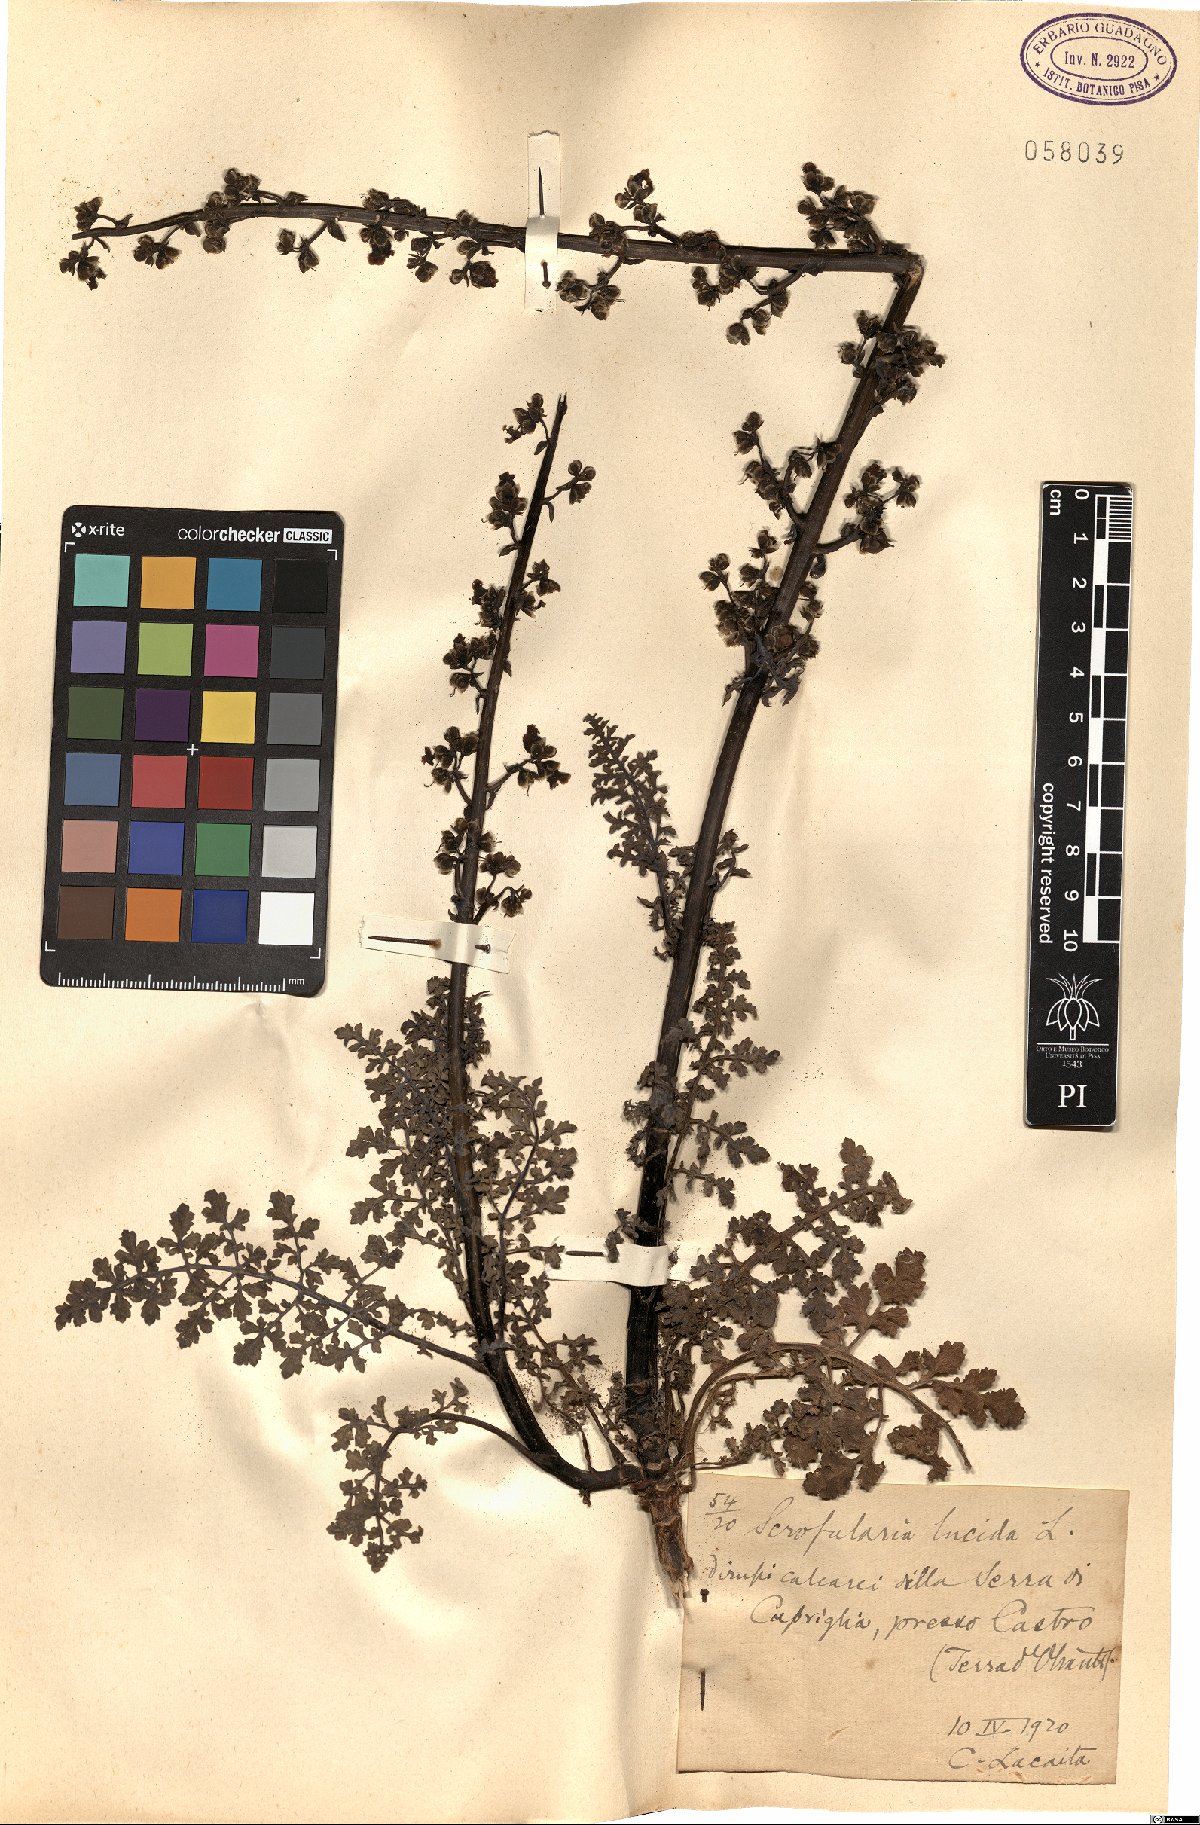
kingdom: Plantae
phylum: Tracheophyta
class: Magnoliopsida
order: Lamiales
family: Scrophulariaceae
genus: Scrophularia
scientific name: Scrophularia lucida
